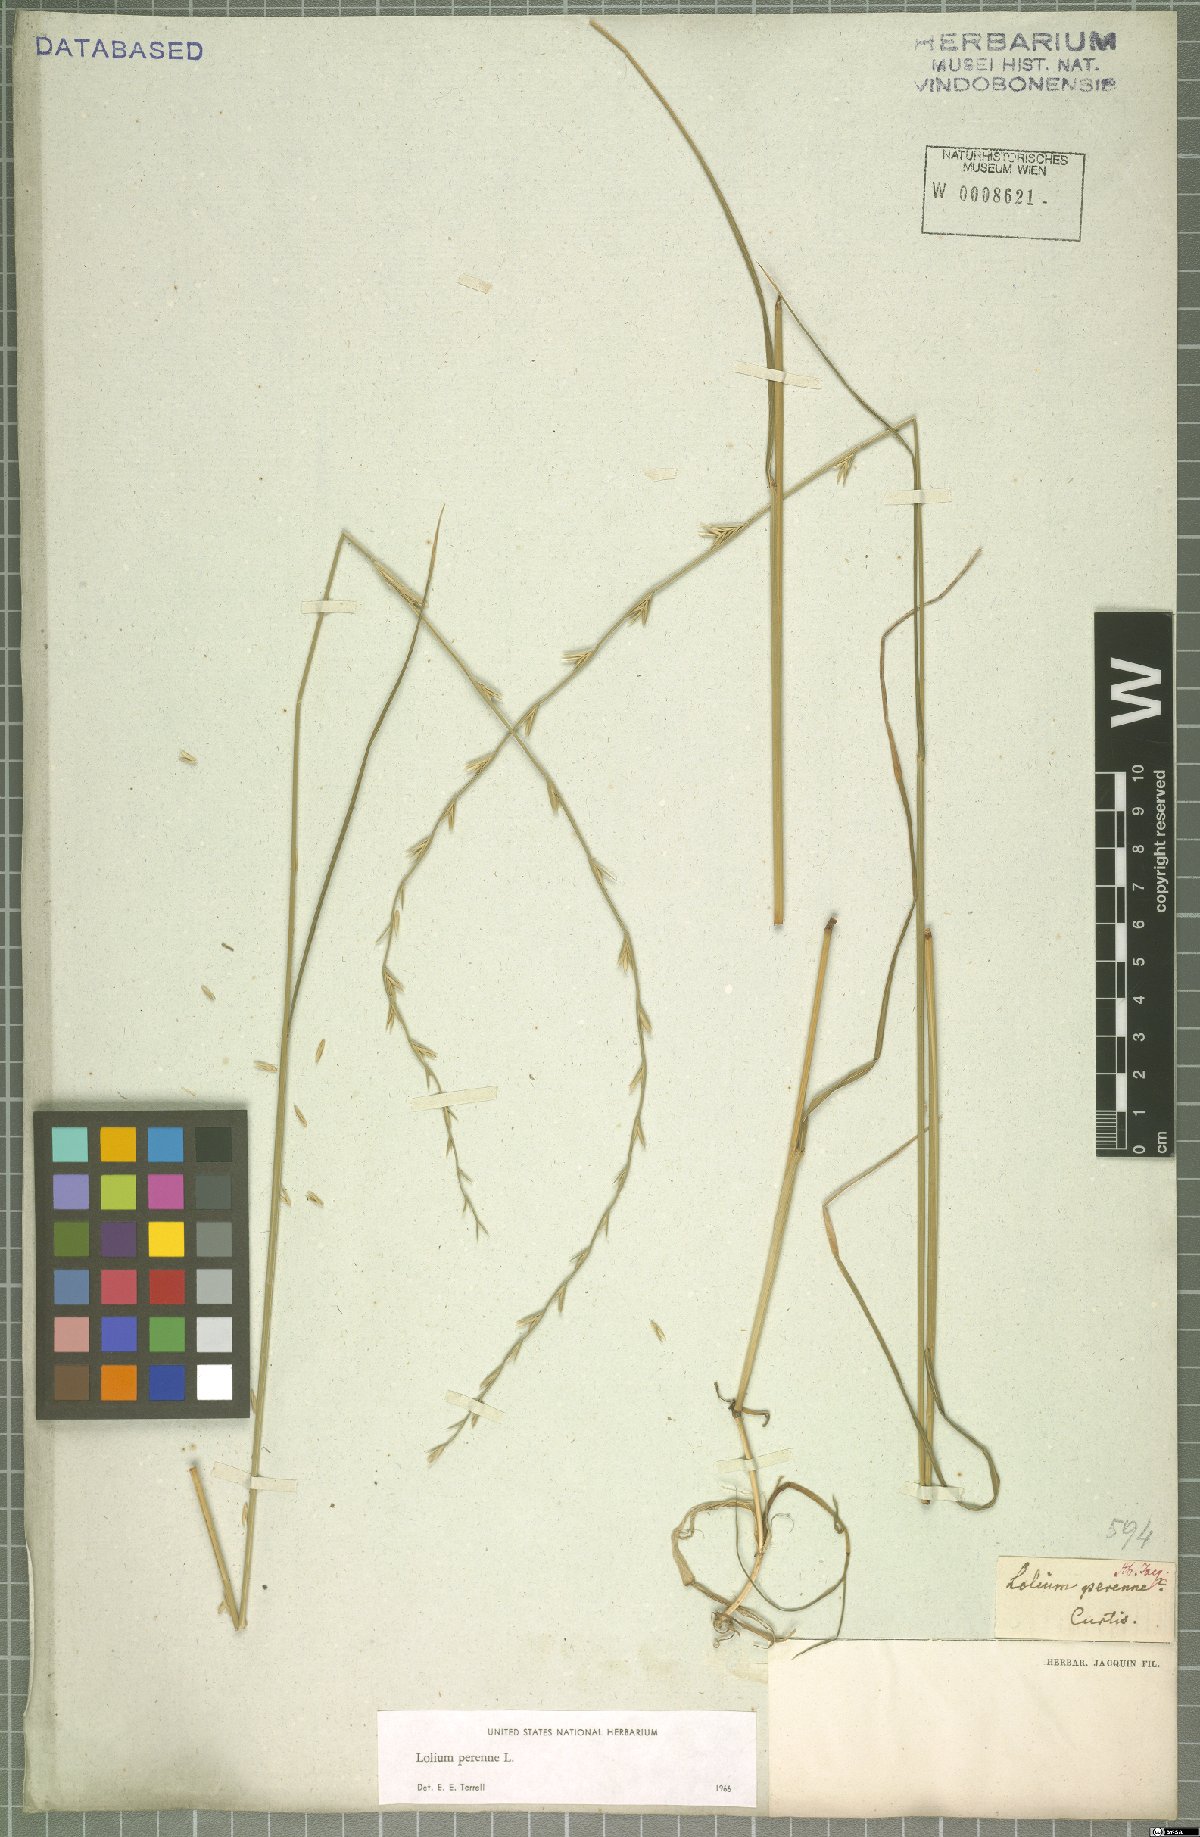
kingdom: Plantae
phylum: Tracheophyta
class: Liliopsida
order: Poales
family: Poaceae
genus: Lolium
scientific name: Lolium perenne
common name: Perennial ryegrass
